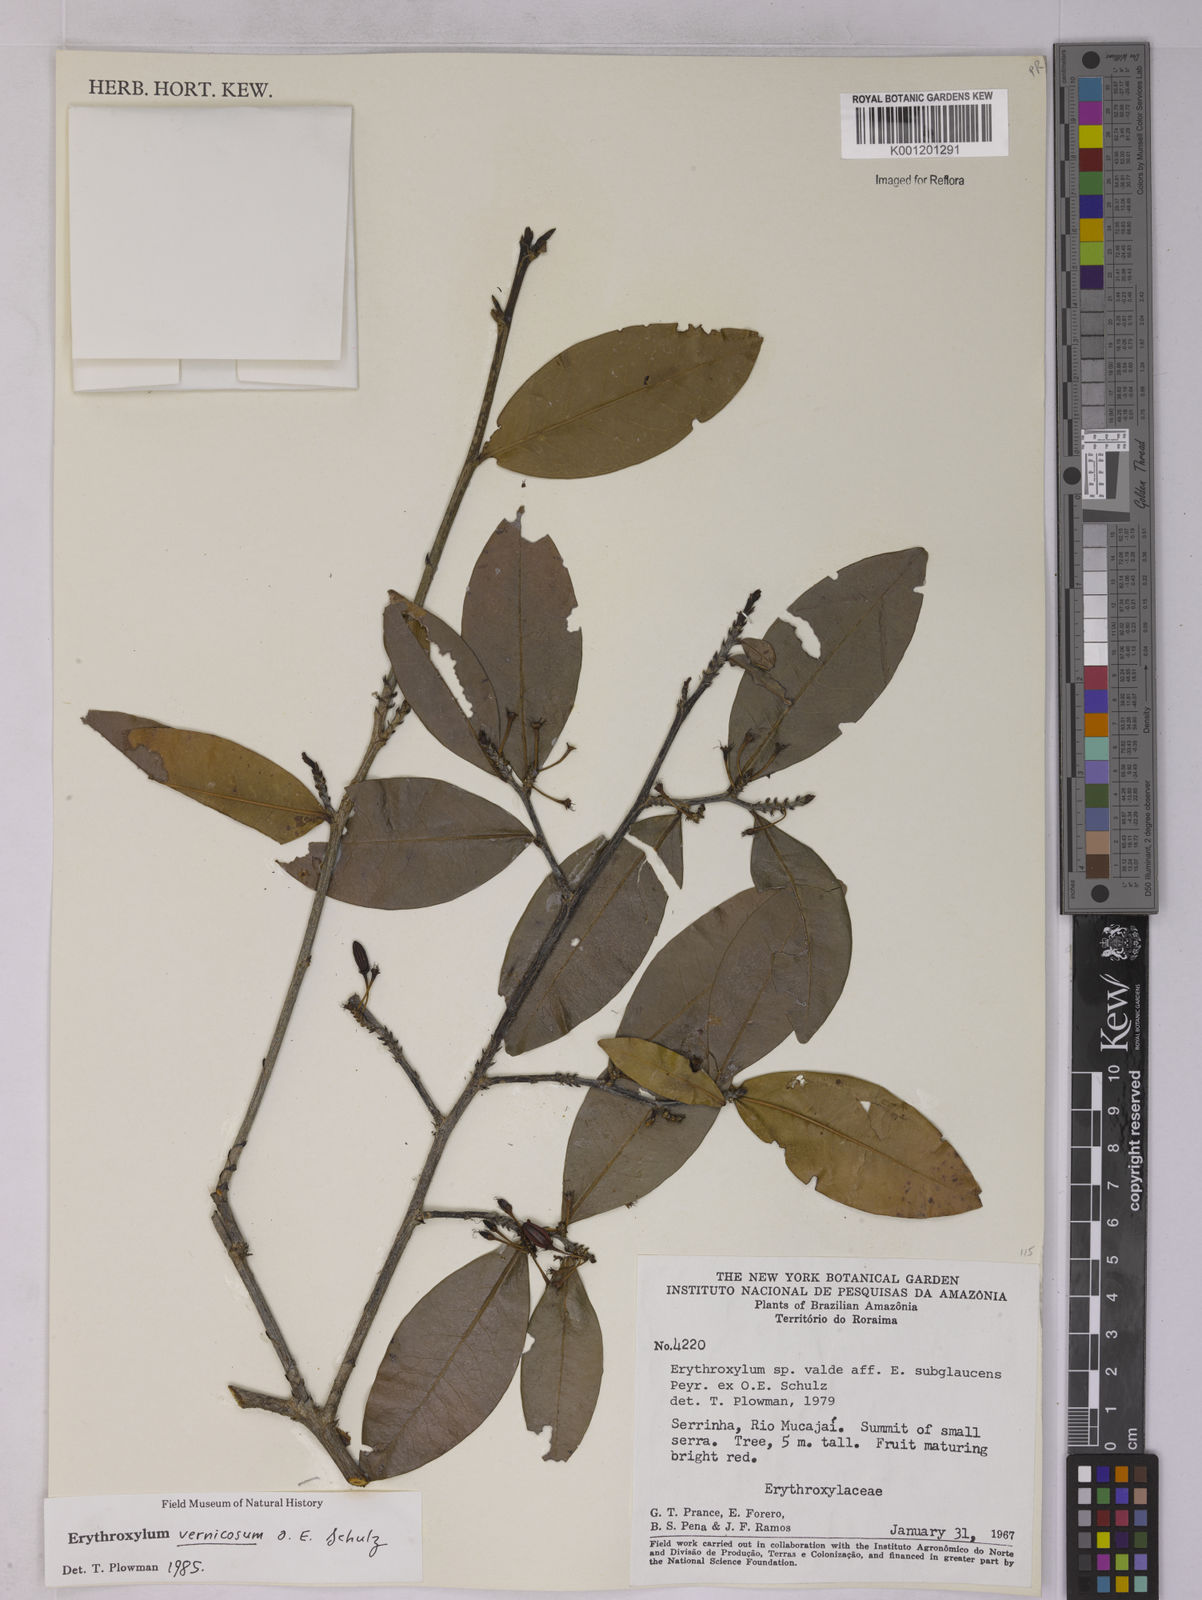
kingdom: Plantae
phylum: Tracheophyta
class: Magnoliopsida
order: Malpighiales
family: Erythroxylaceae
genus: Erythroxylum
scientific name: Erythroxylum vernicosum
